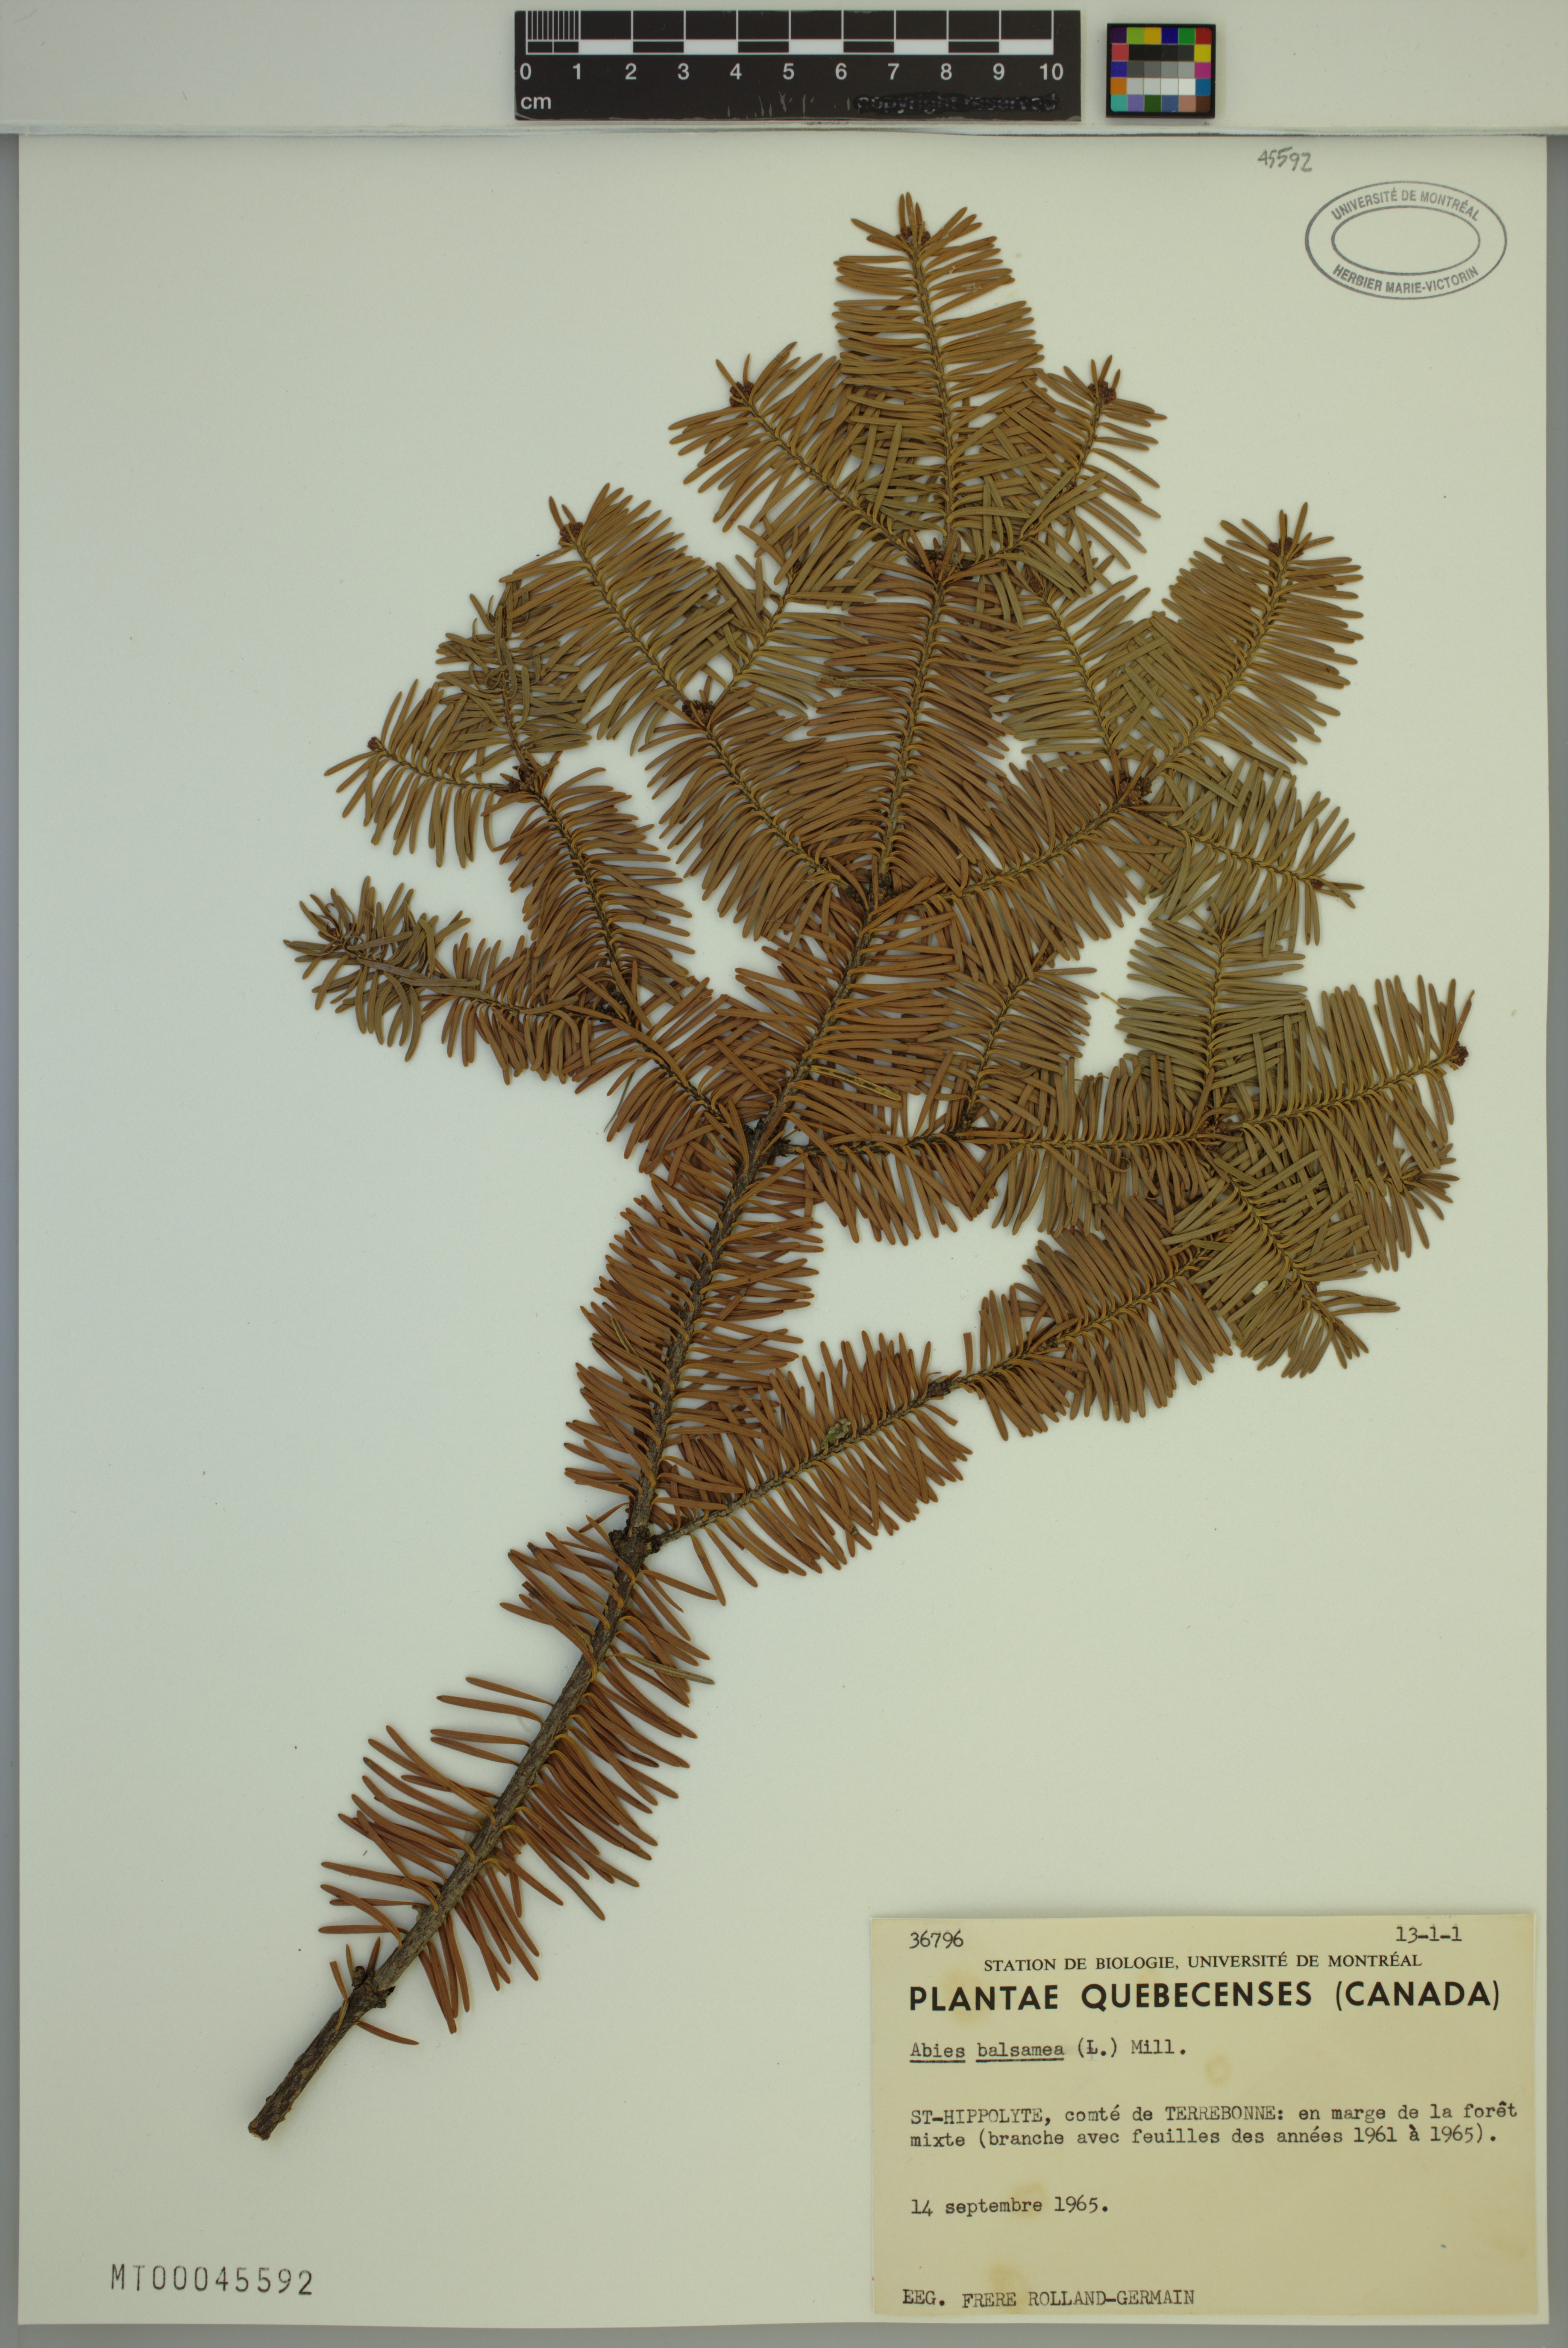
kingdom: Plantae
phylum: Tracheophyta
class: Pinopsida
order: Pinales
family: Pinaceae
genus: Abies
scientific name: Abies balsamea
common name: Balsam fir
